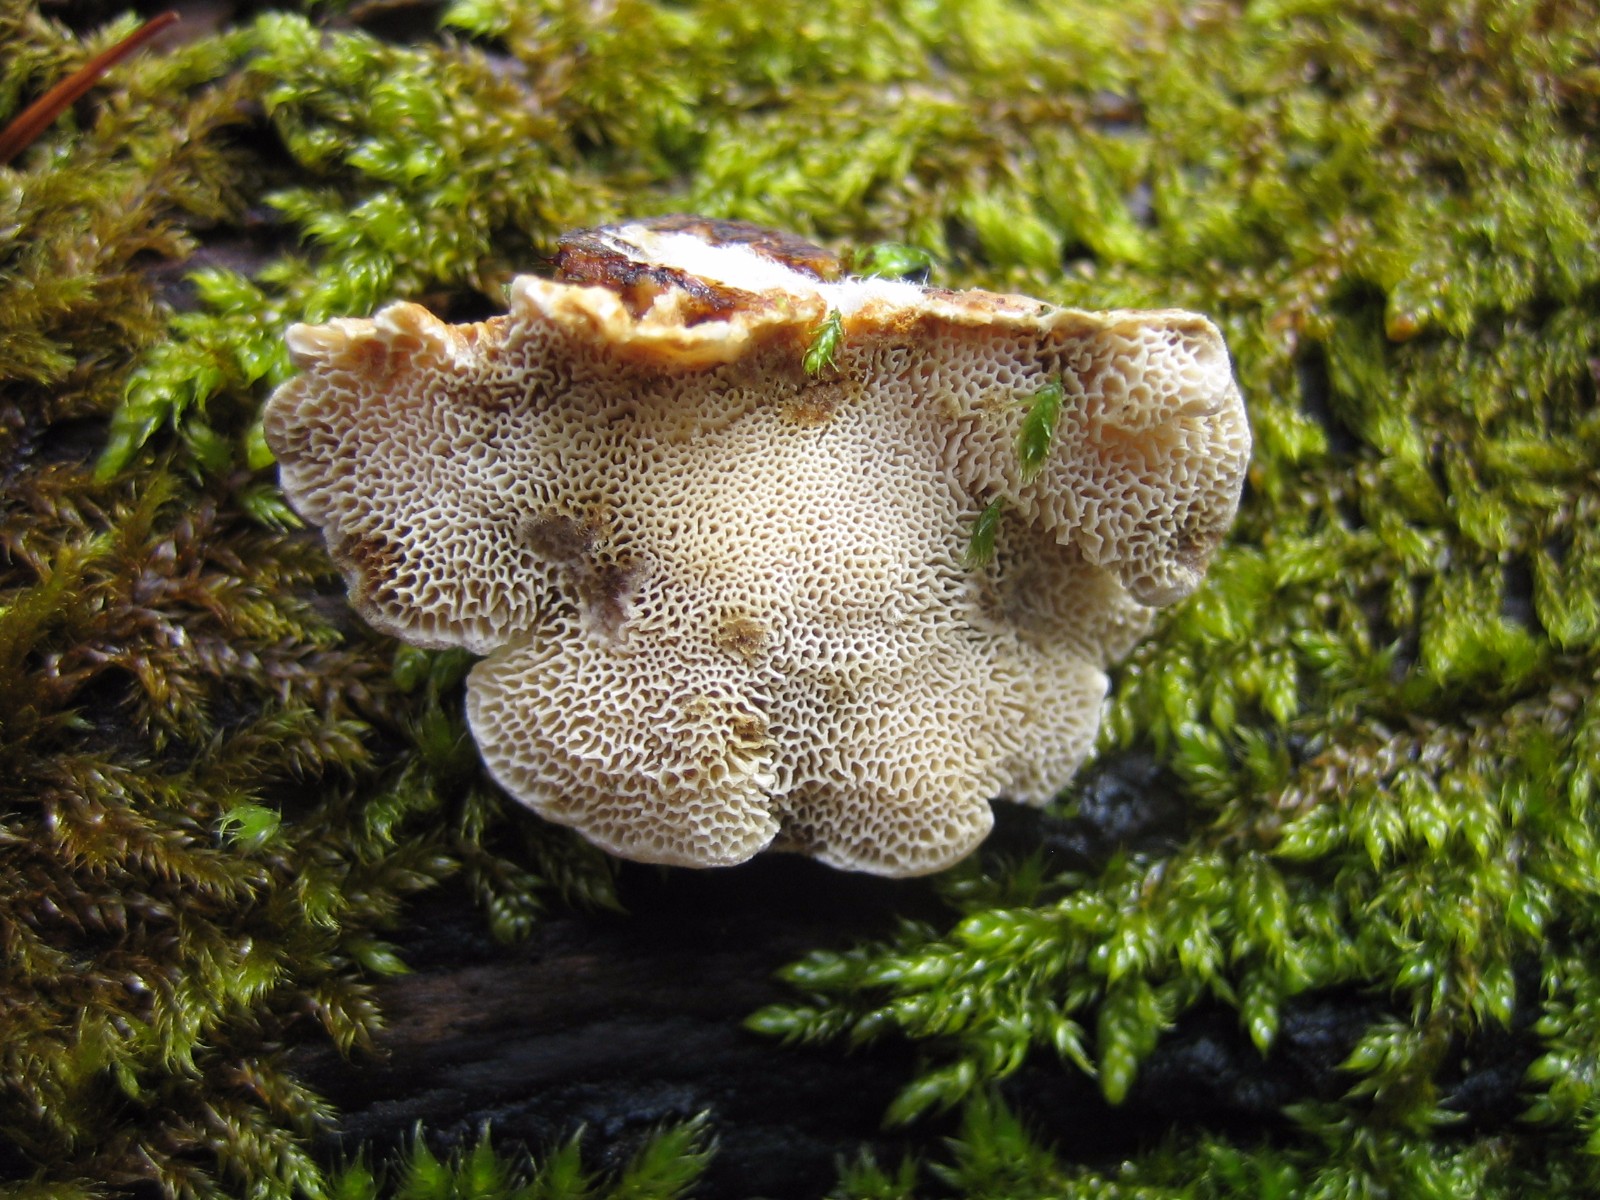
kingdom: Fungi
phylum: Basidiomycota
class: Agaricomycetes
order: Polyporales
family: Polyporaceae
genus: Trametes
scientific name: Trametes ochracea
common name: bæltet læderporesvamp
